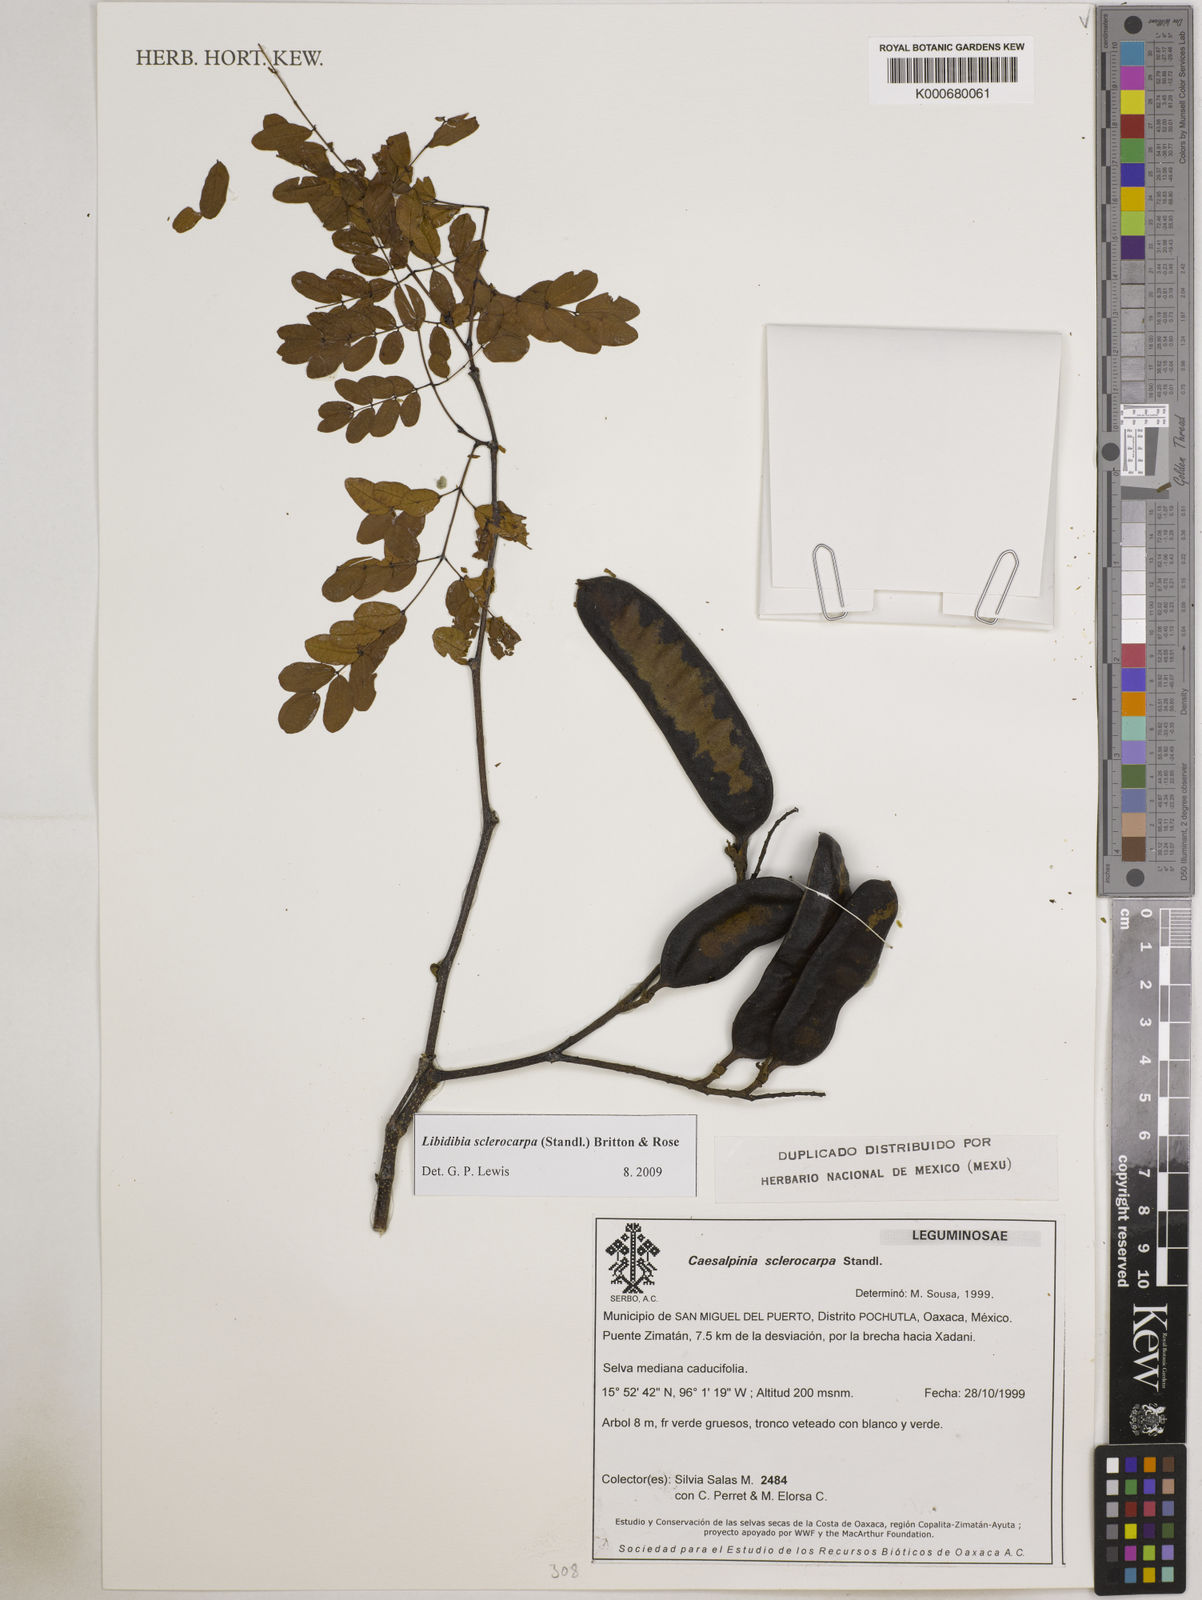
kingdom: Plantae
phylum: Tracheophyta
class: Magnoliopsida
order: Fabales
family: Fabaceae
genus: Libidibia
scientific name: Libidibia sclerocarpa
